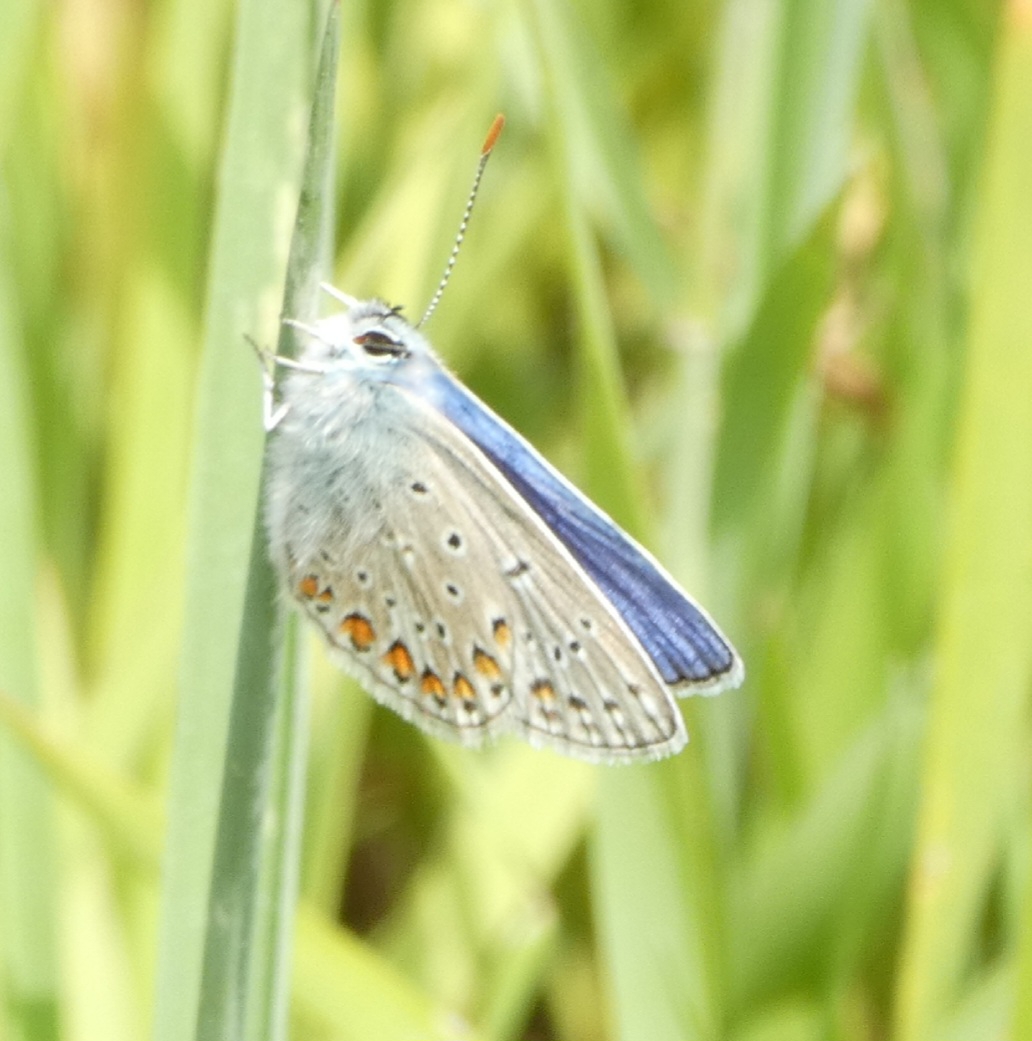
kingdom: Animalia
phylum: Arthropoda
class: Insecta
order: Lepidoptera
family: Lycaenidae
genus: Polyommatus
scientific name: Polyommatus icarus
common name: Almindelig blåfugl
